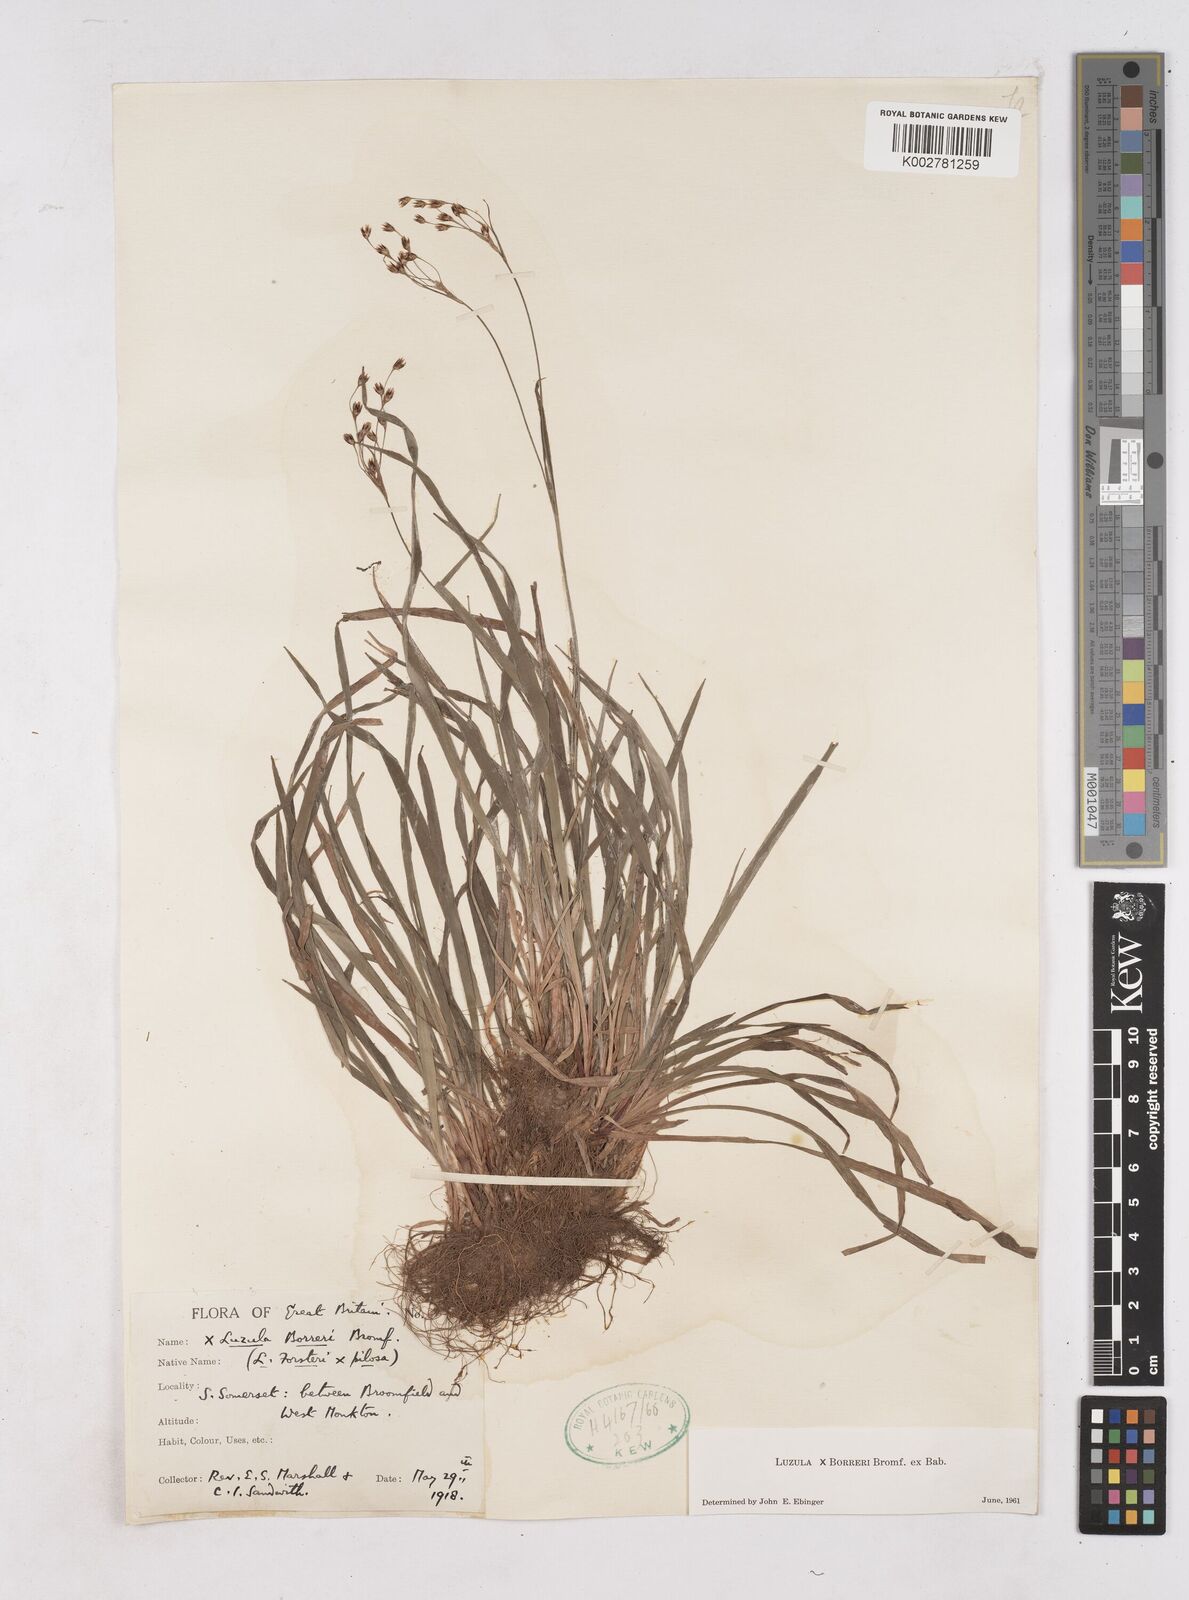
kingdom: Plantae
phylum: Tracheophyta
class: Liliopsida
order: Poales
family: Juncaceae
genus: Luzula
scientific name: Luzula forsteri
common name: Southern wood-rush
